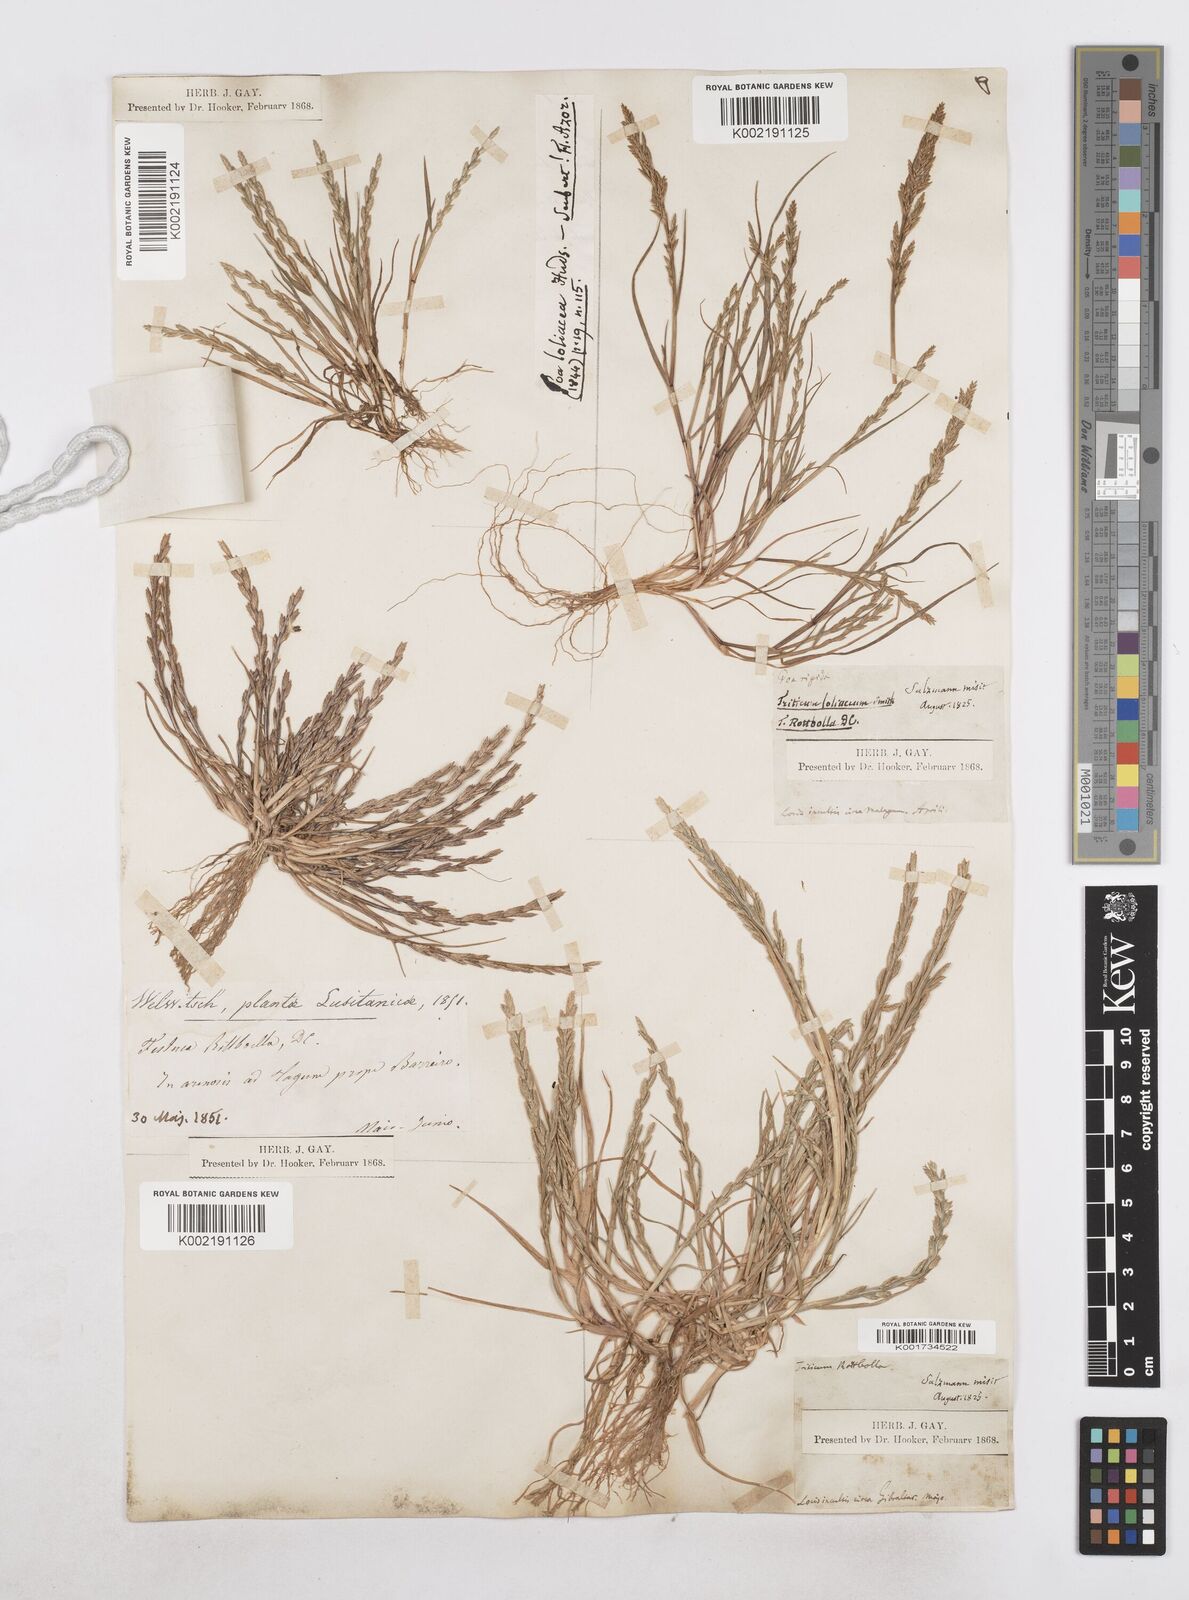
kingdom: Plantae
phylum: Tracheophyta
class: Liliopsida
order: Poales
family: Poaceae
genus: Catapodium
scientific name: Catapodium marinum
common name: Sea fern-grass
